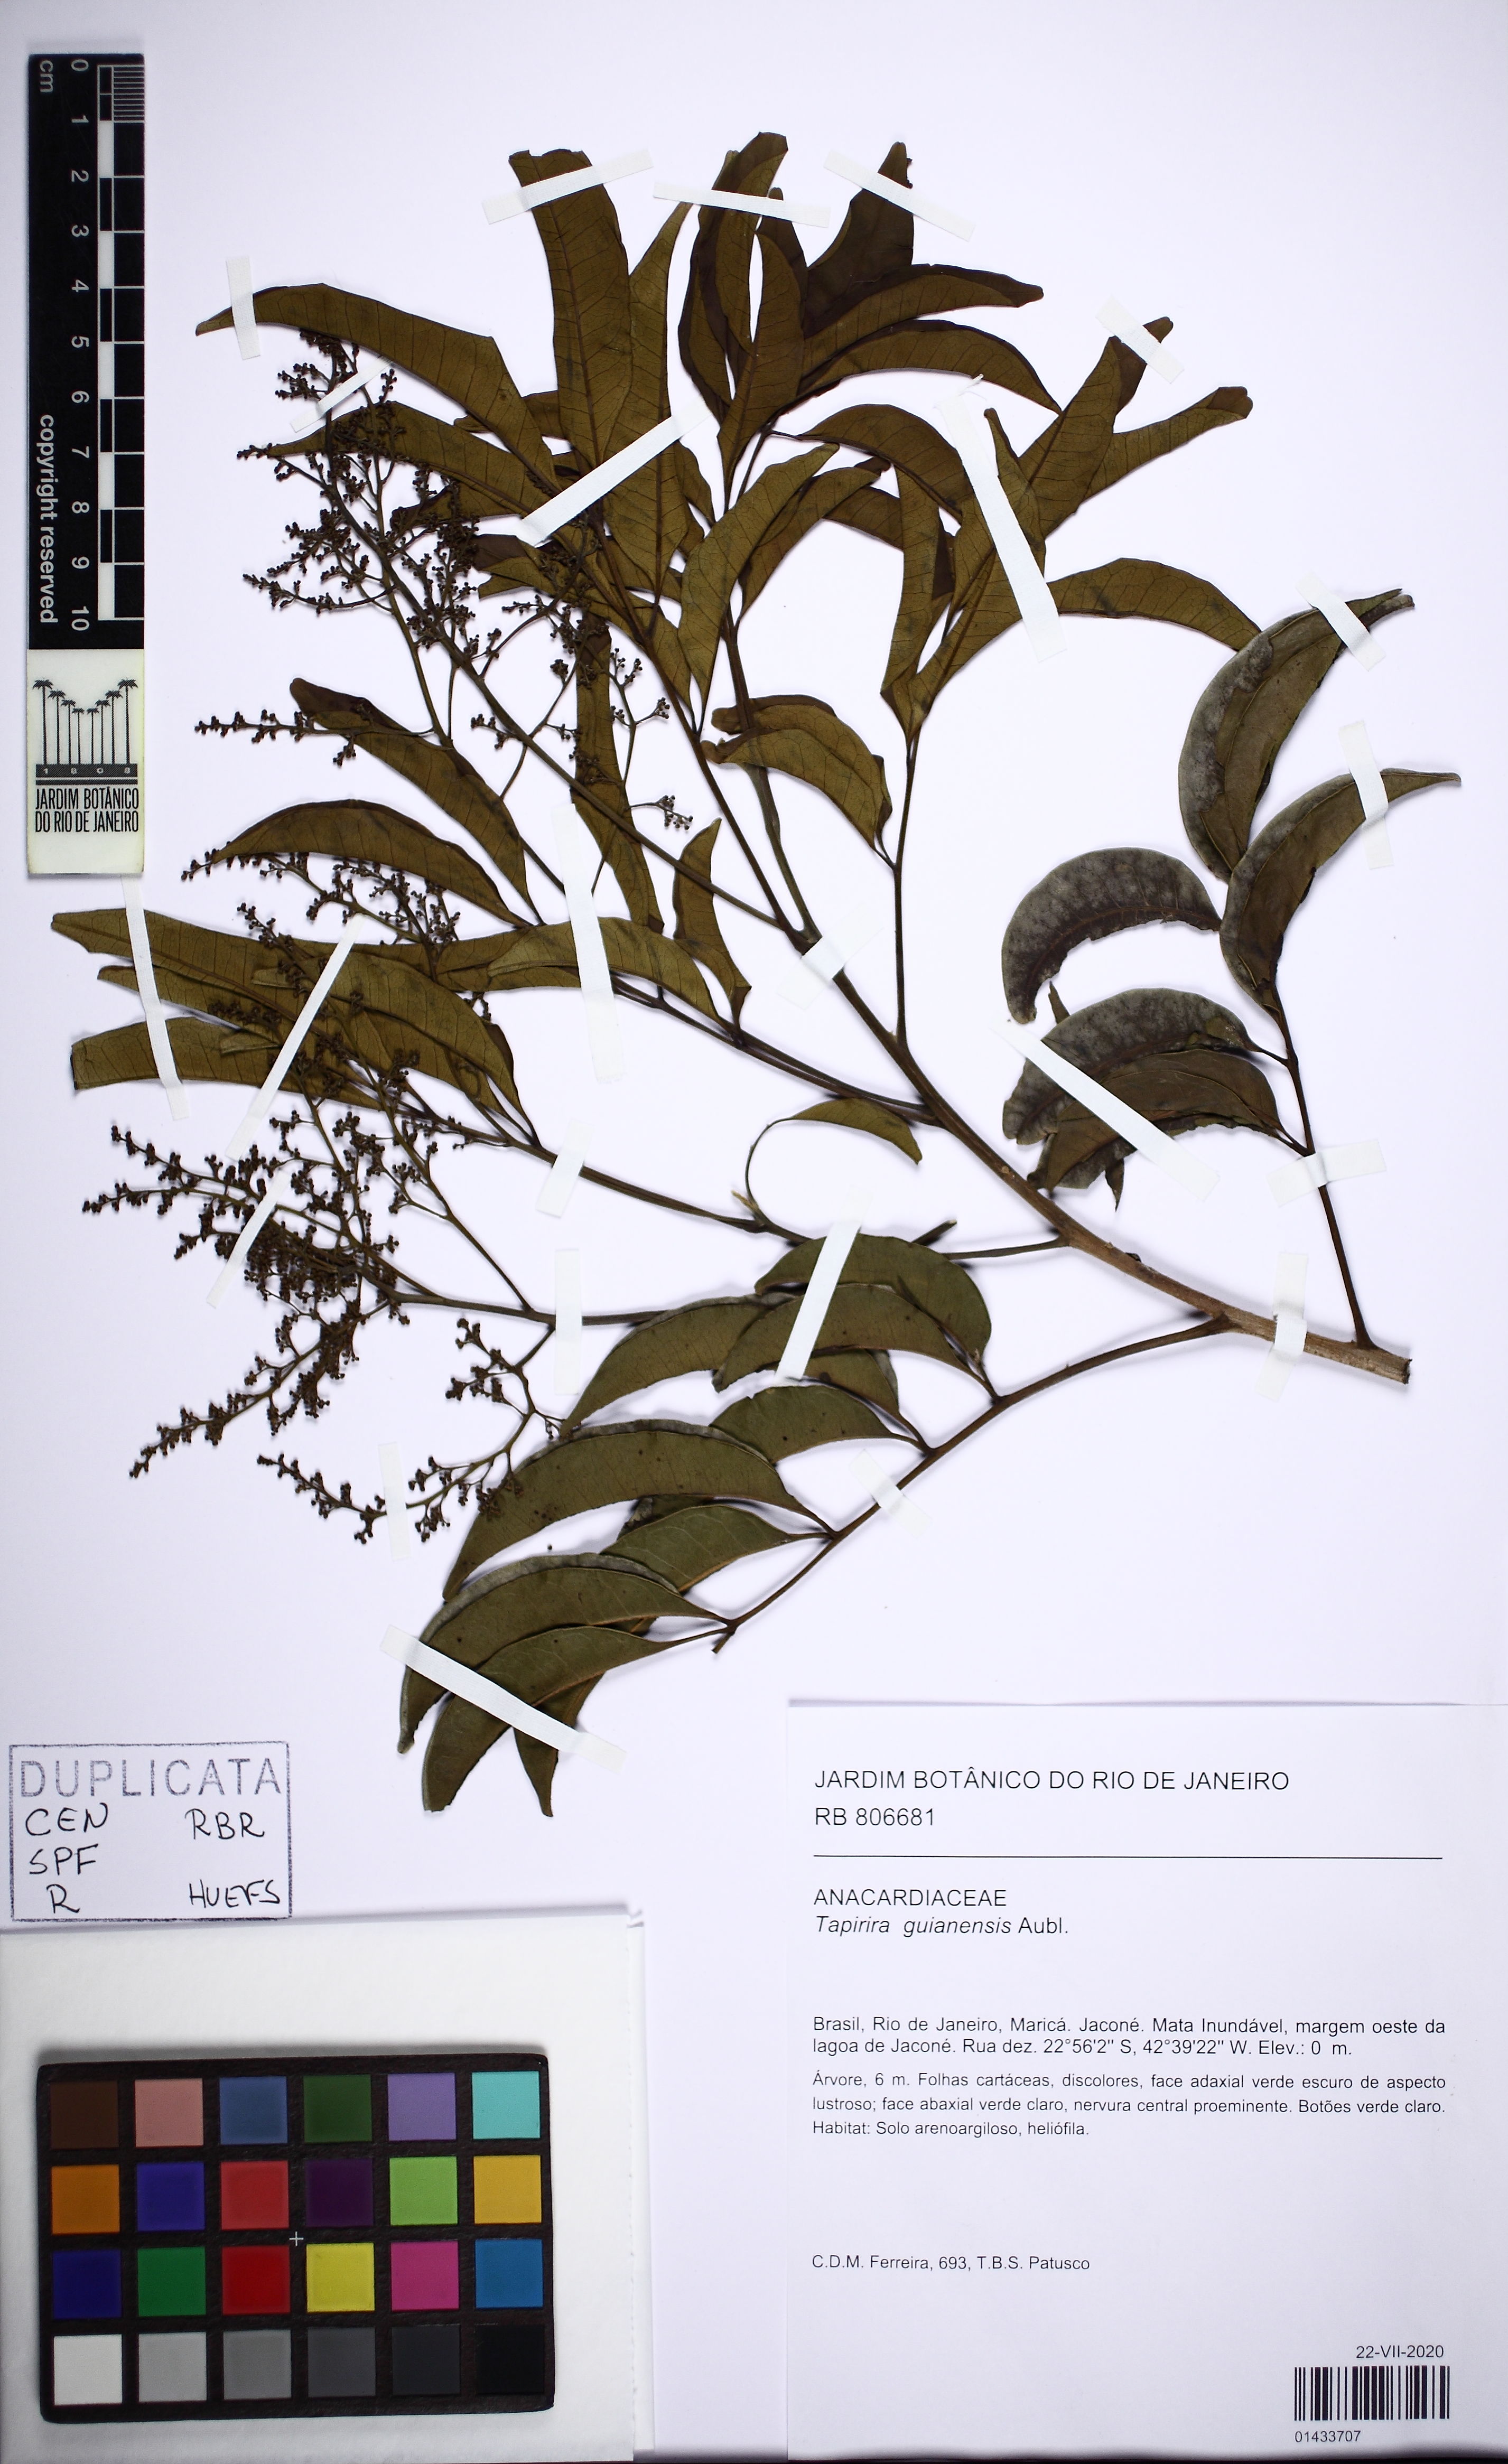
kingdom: Plantae
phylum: Tracheophyta
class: Magnoliopsida
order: Sapindales
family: Anacardiaceae
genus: Tapirira
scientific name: Tapirira guianensis
